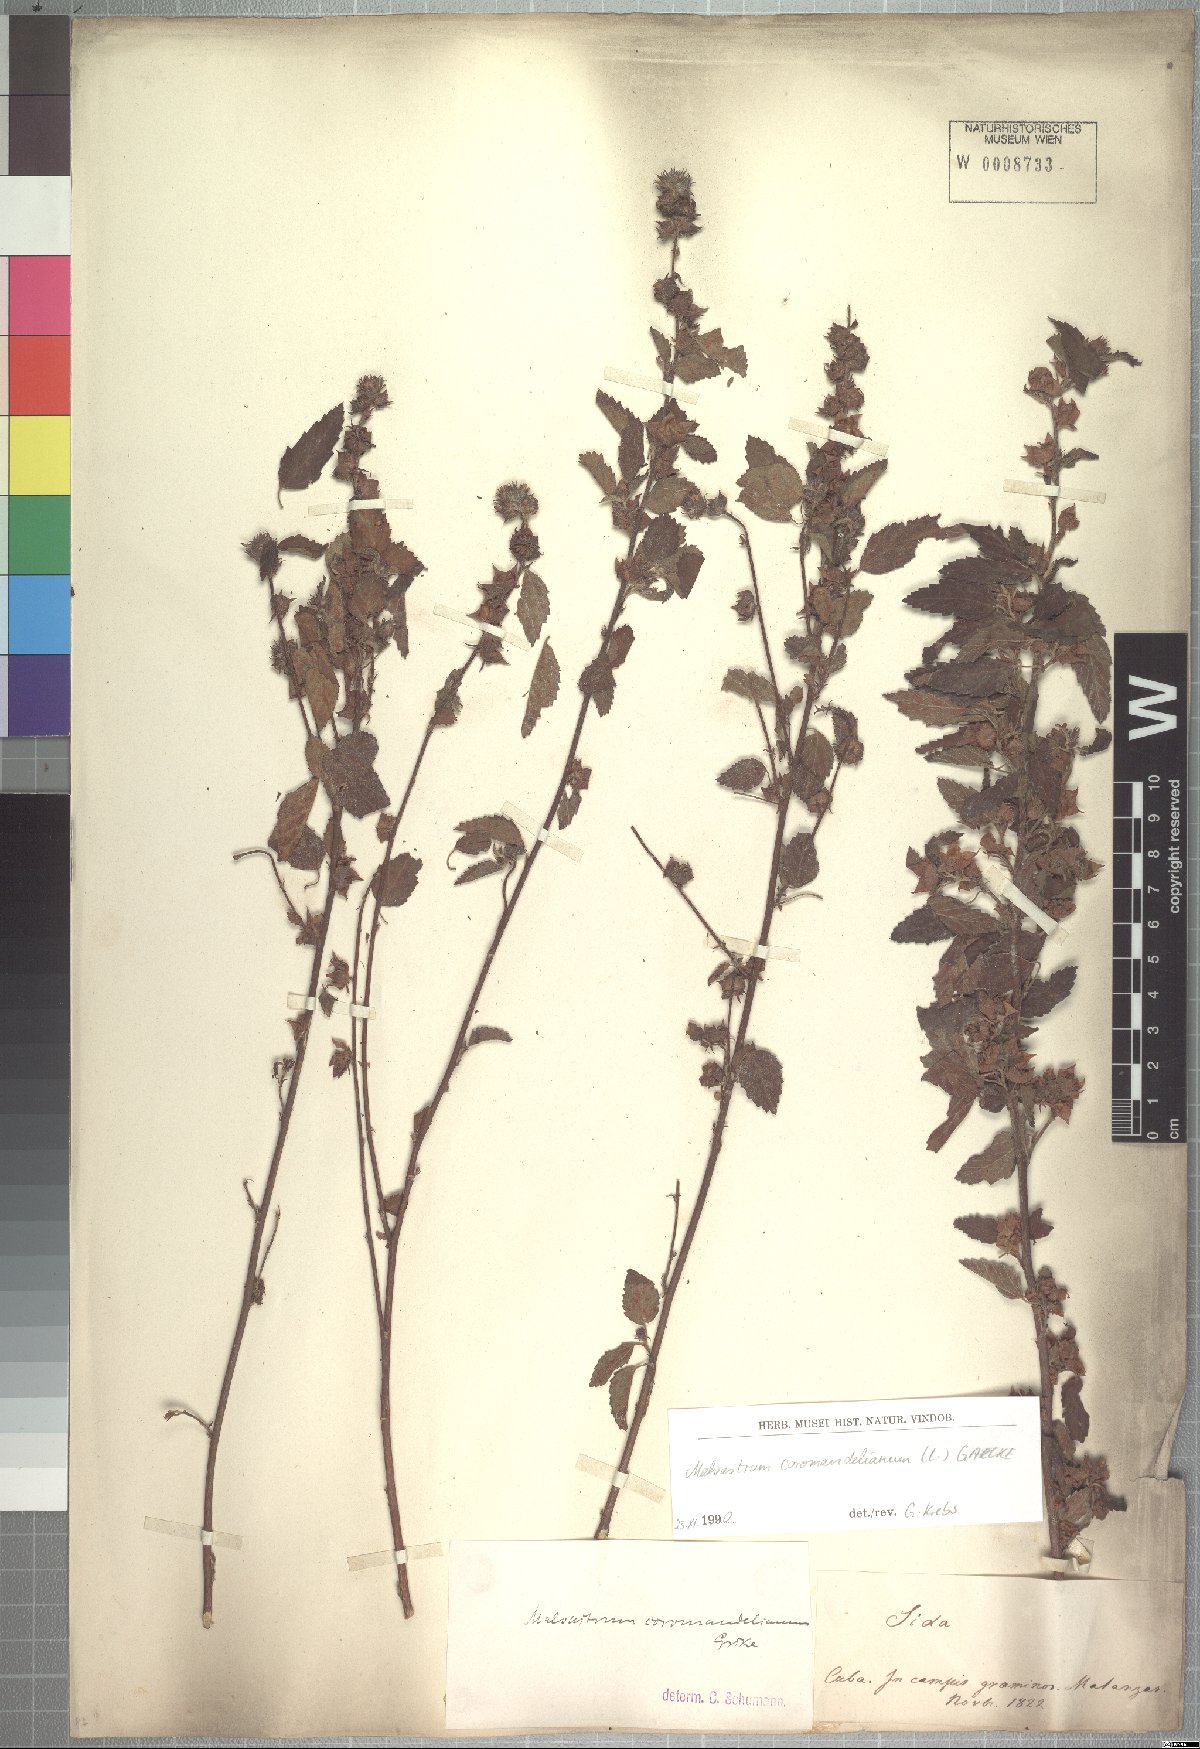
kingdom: Plantae
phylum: Tracheophyta
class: Magnoliopsida
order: Malvales
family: Malvaceae
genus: Malvastrum
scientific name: Malvastrum coromandelianum
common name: Threelobe false mallow
